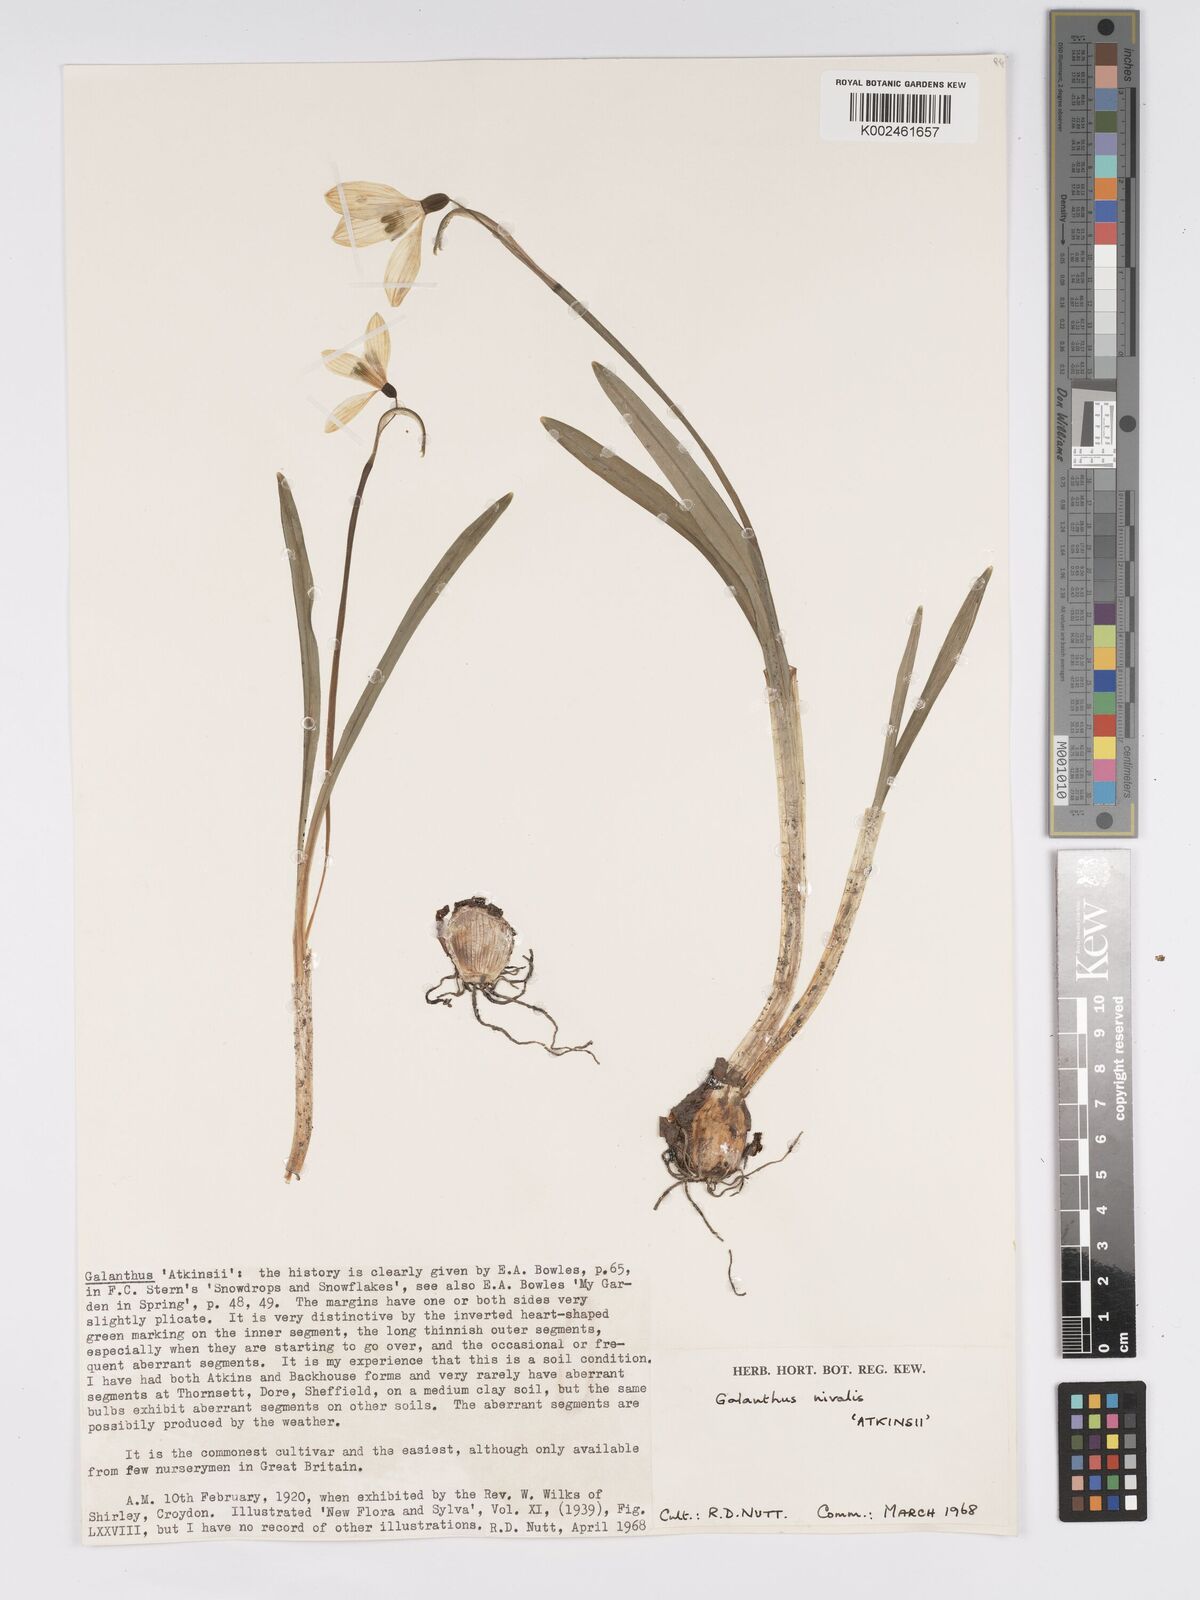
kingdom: Plantae
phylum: Tracheophyta
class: Liliopsida
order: Asparagales
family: Amaryllidaceae
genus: Galanthus
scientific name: Galanthus
